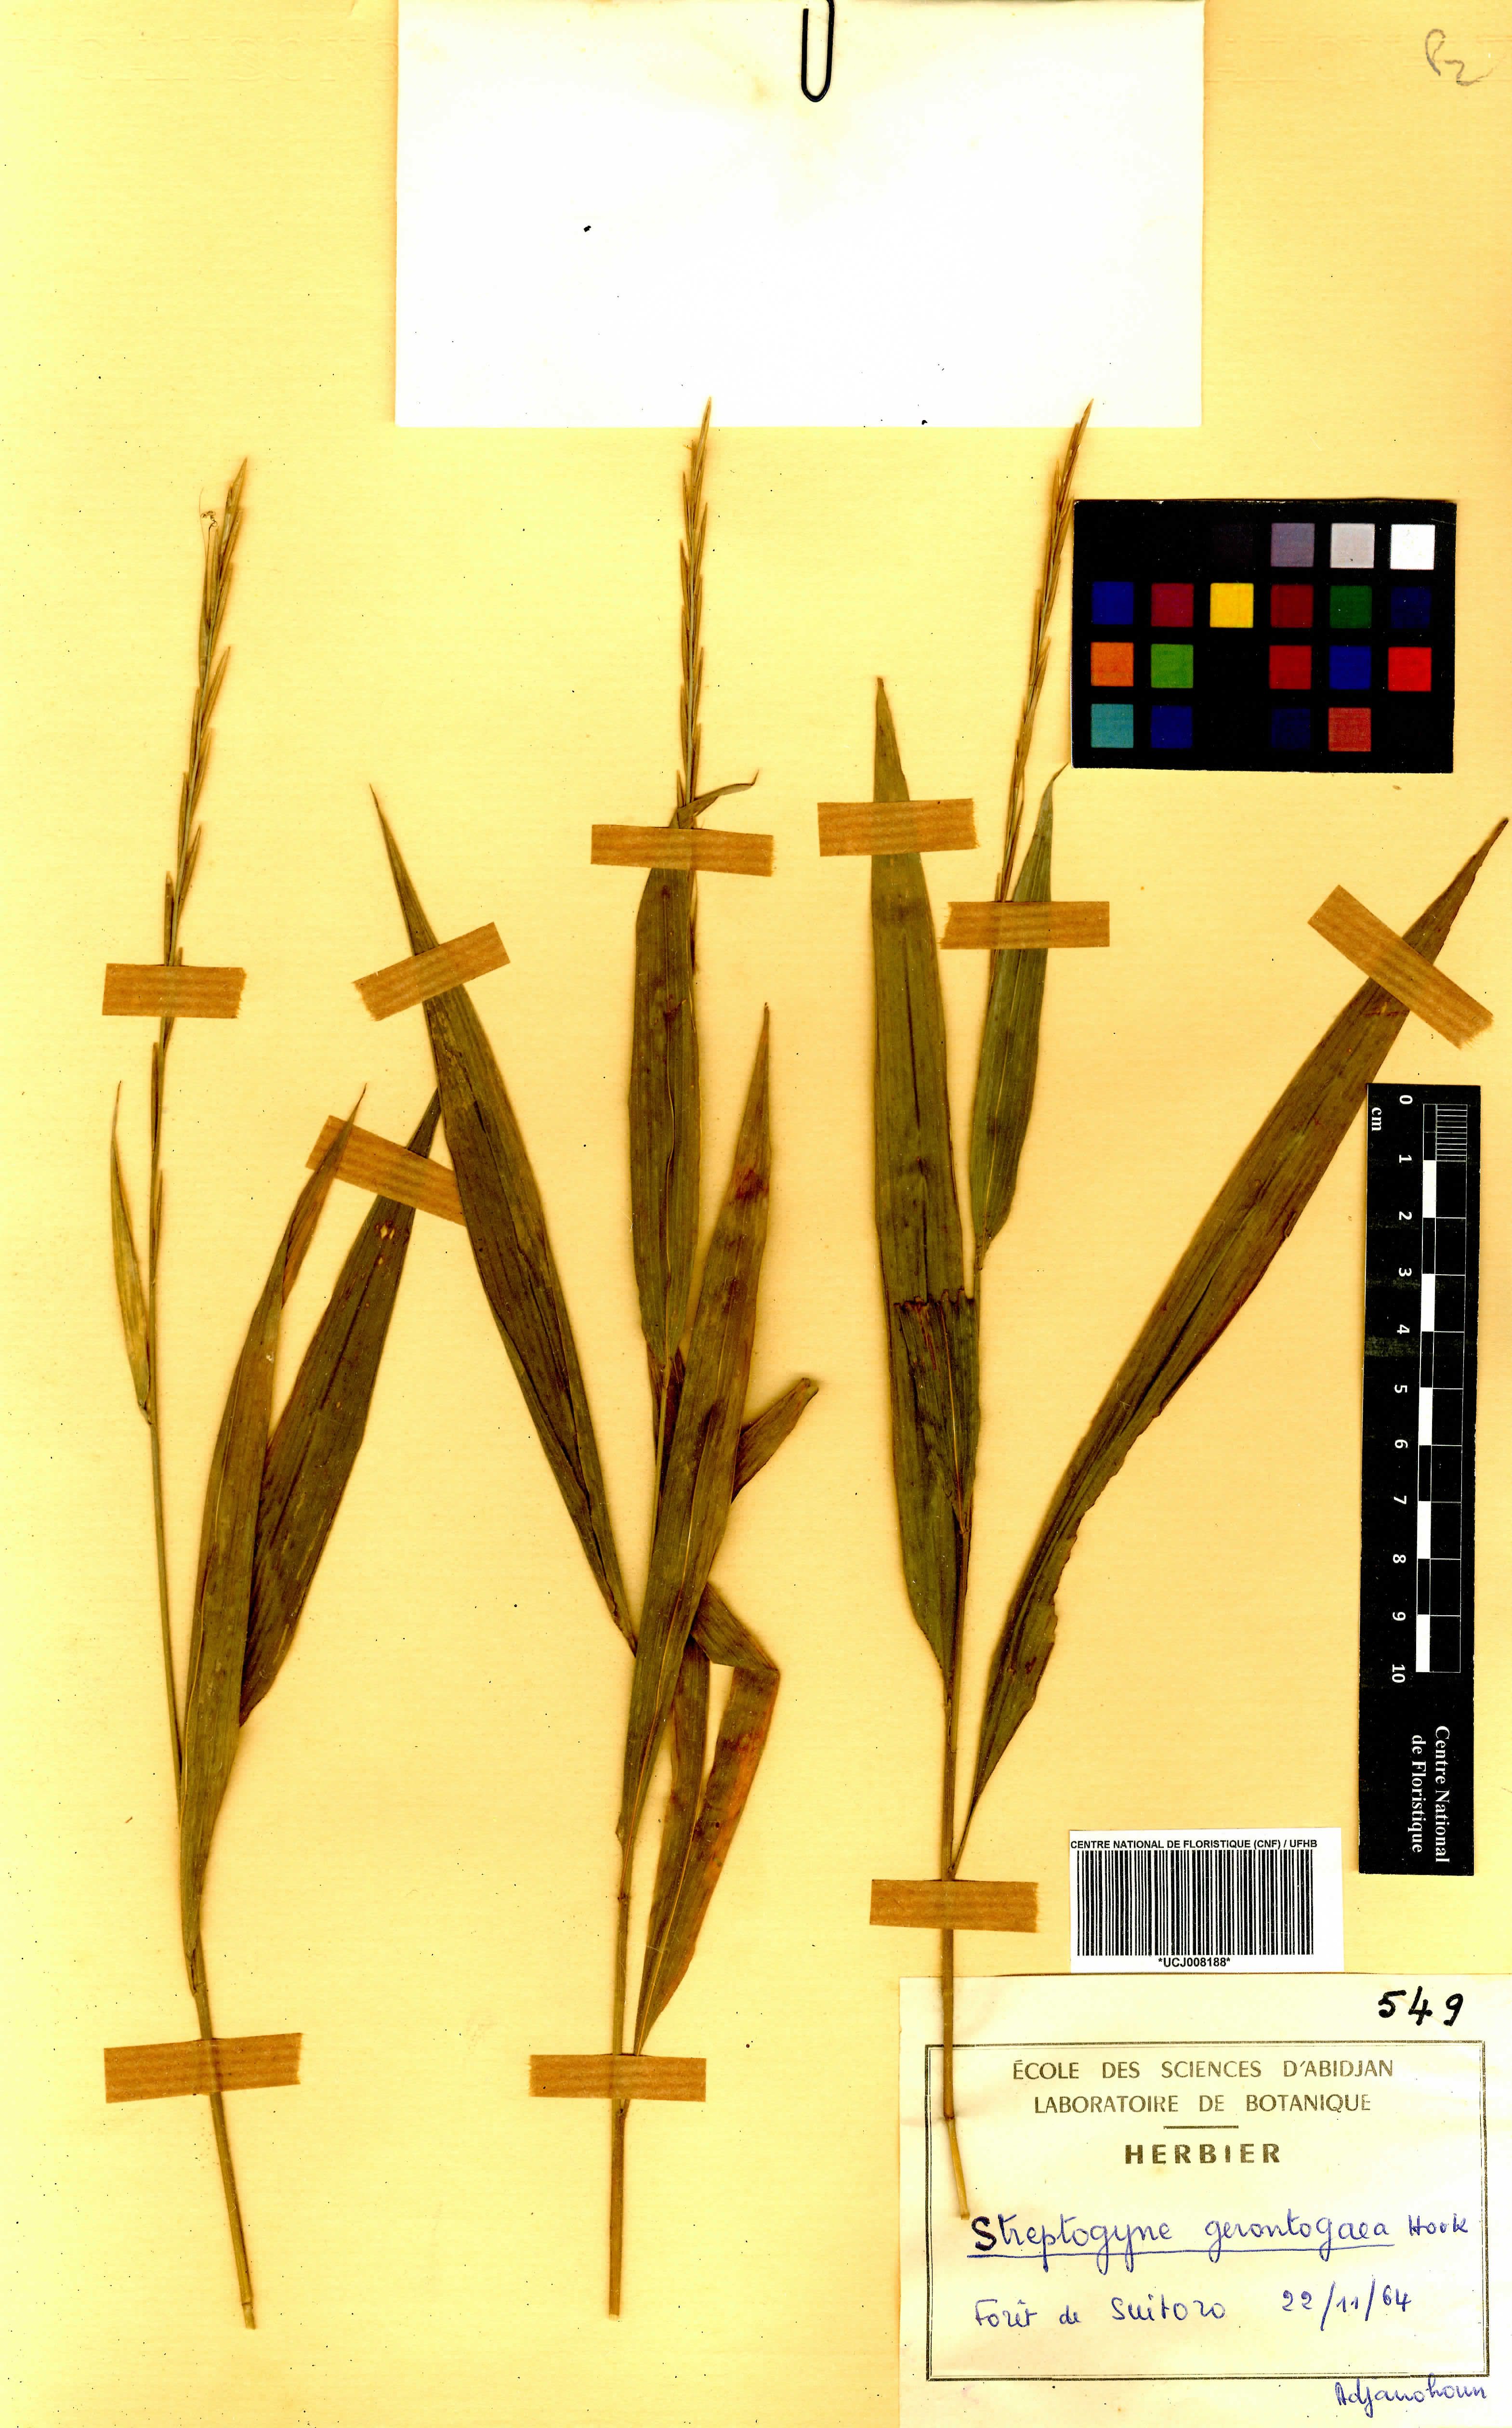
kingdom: Plantae
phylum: Tracheophyta
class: Liliopsida
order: Poales
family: Poaceae
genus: Streptogyna
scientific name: Streptogyna crinita
